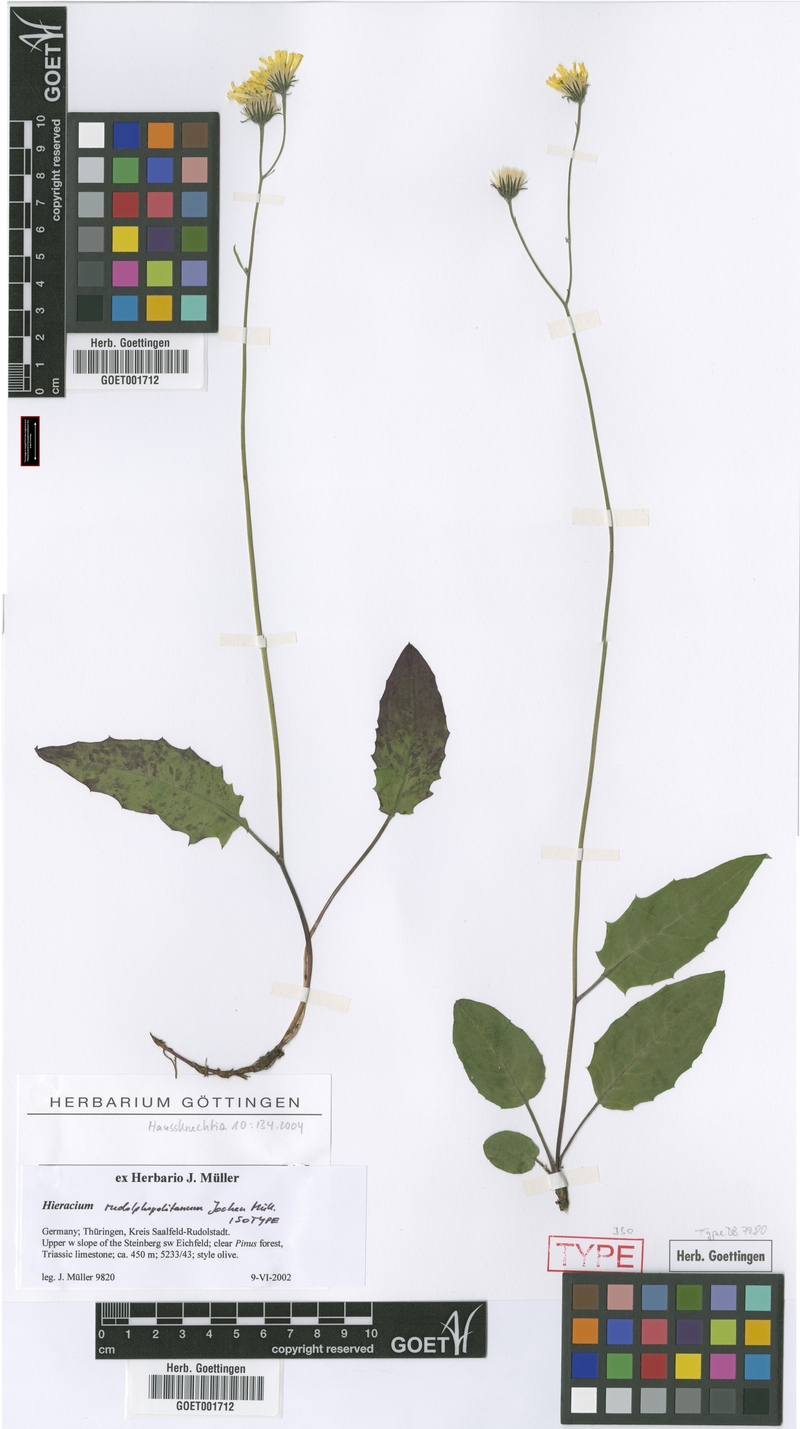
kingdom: Plantae
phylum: Tracheophyta
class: Magnoliopsida
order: Asterales
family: Asteraceae
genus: Hieracium
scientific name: Hieracium hypochoeroides
